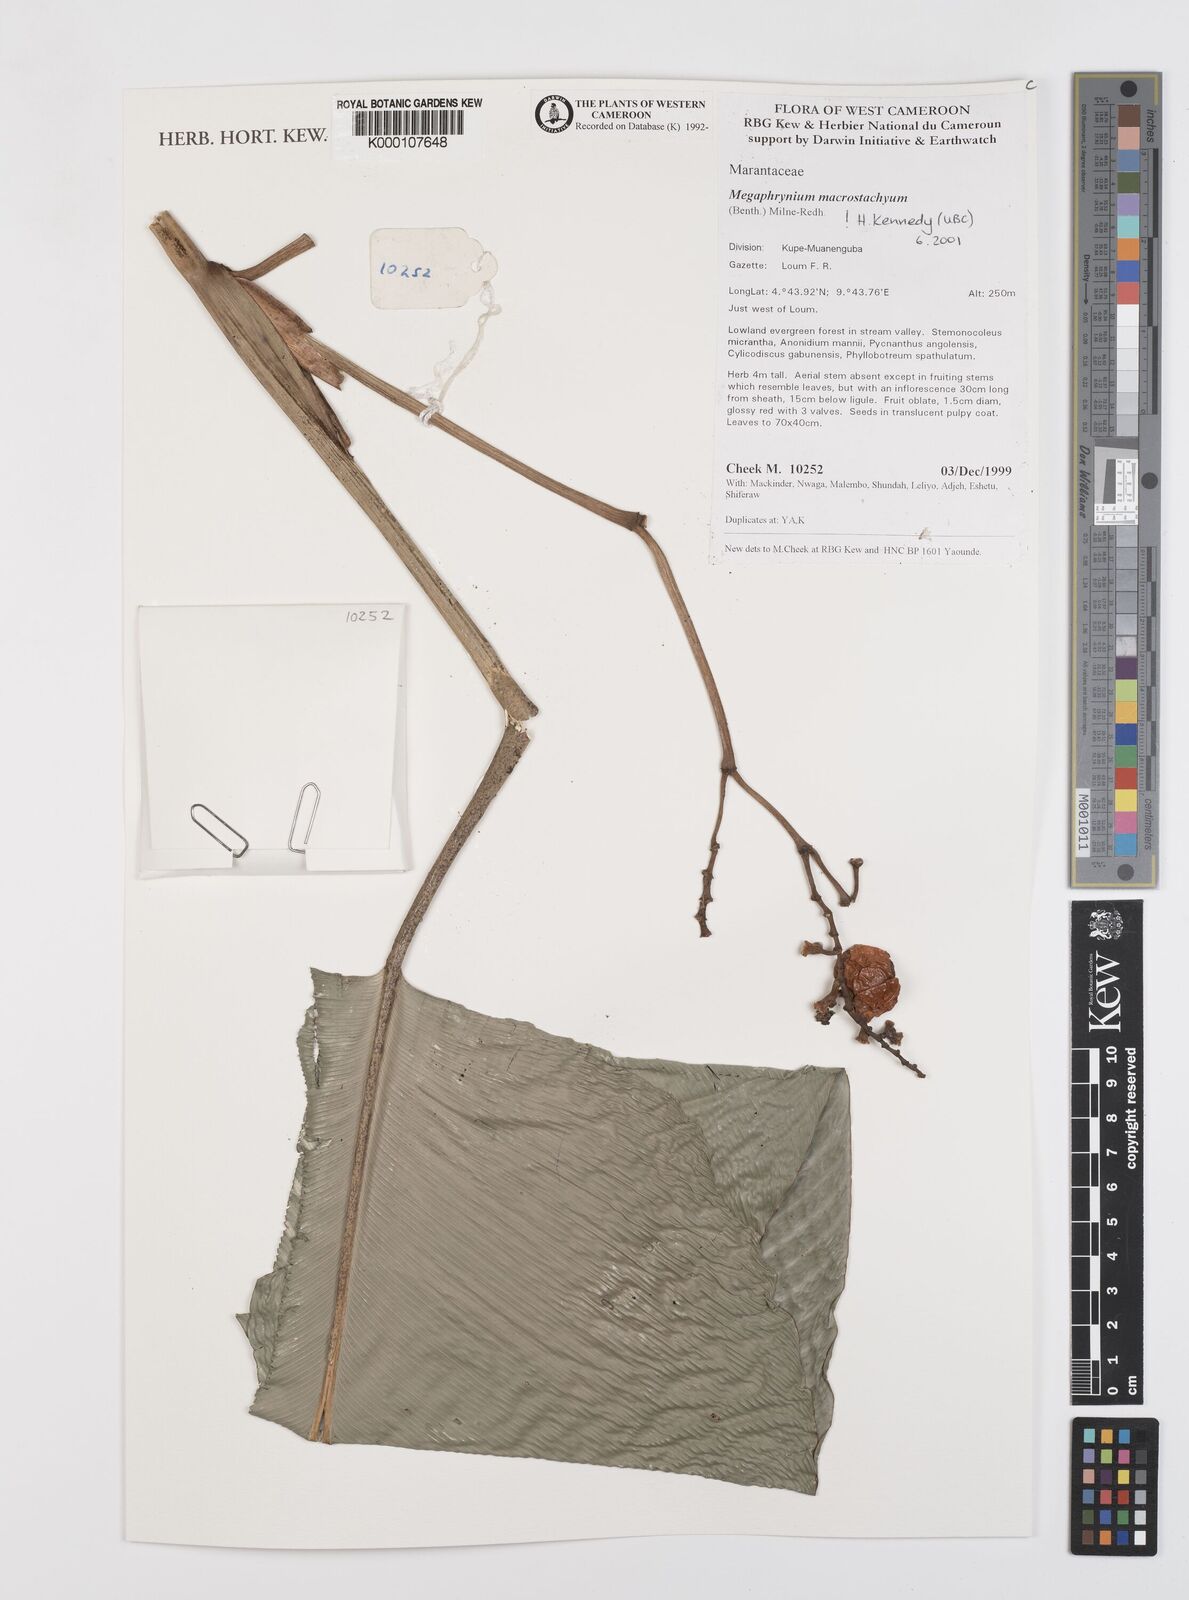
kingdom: Plantae
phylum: Tracheophyta
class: Liliopsida
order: Zingiberales
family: Marantaceae
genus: Megaphrynium
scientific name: Megaphrynium macrostachyum
